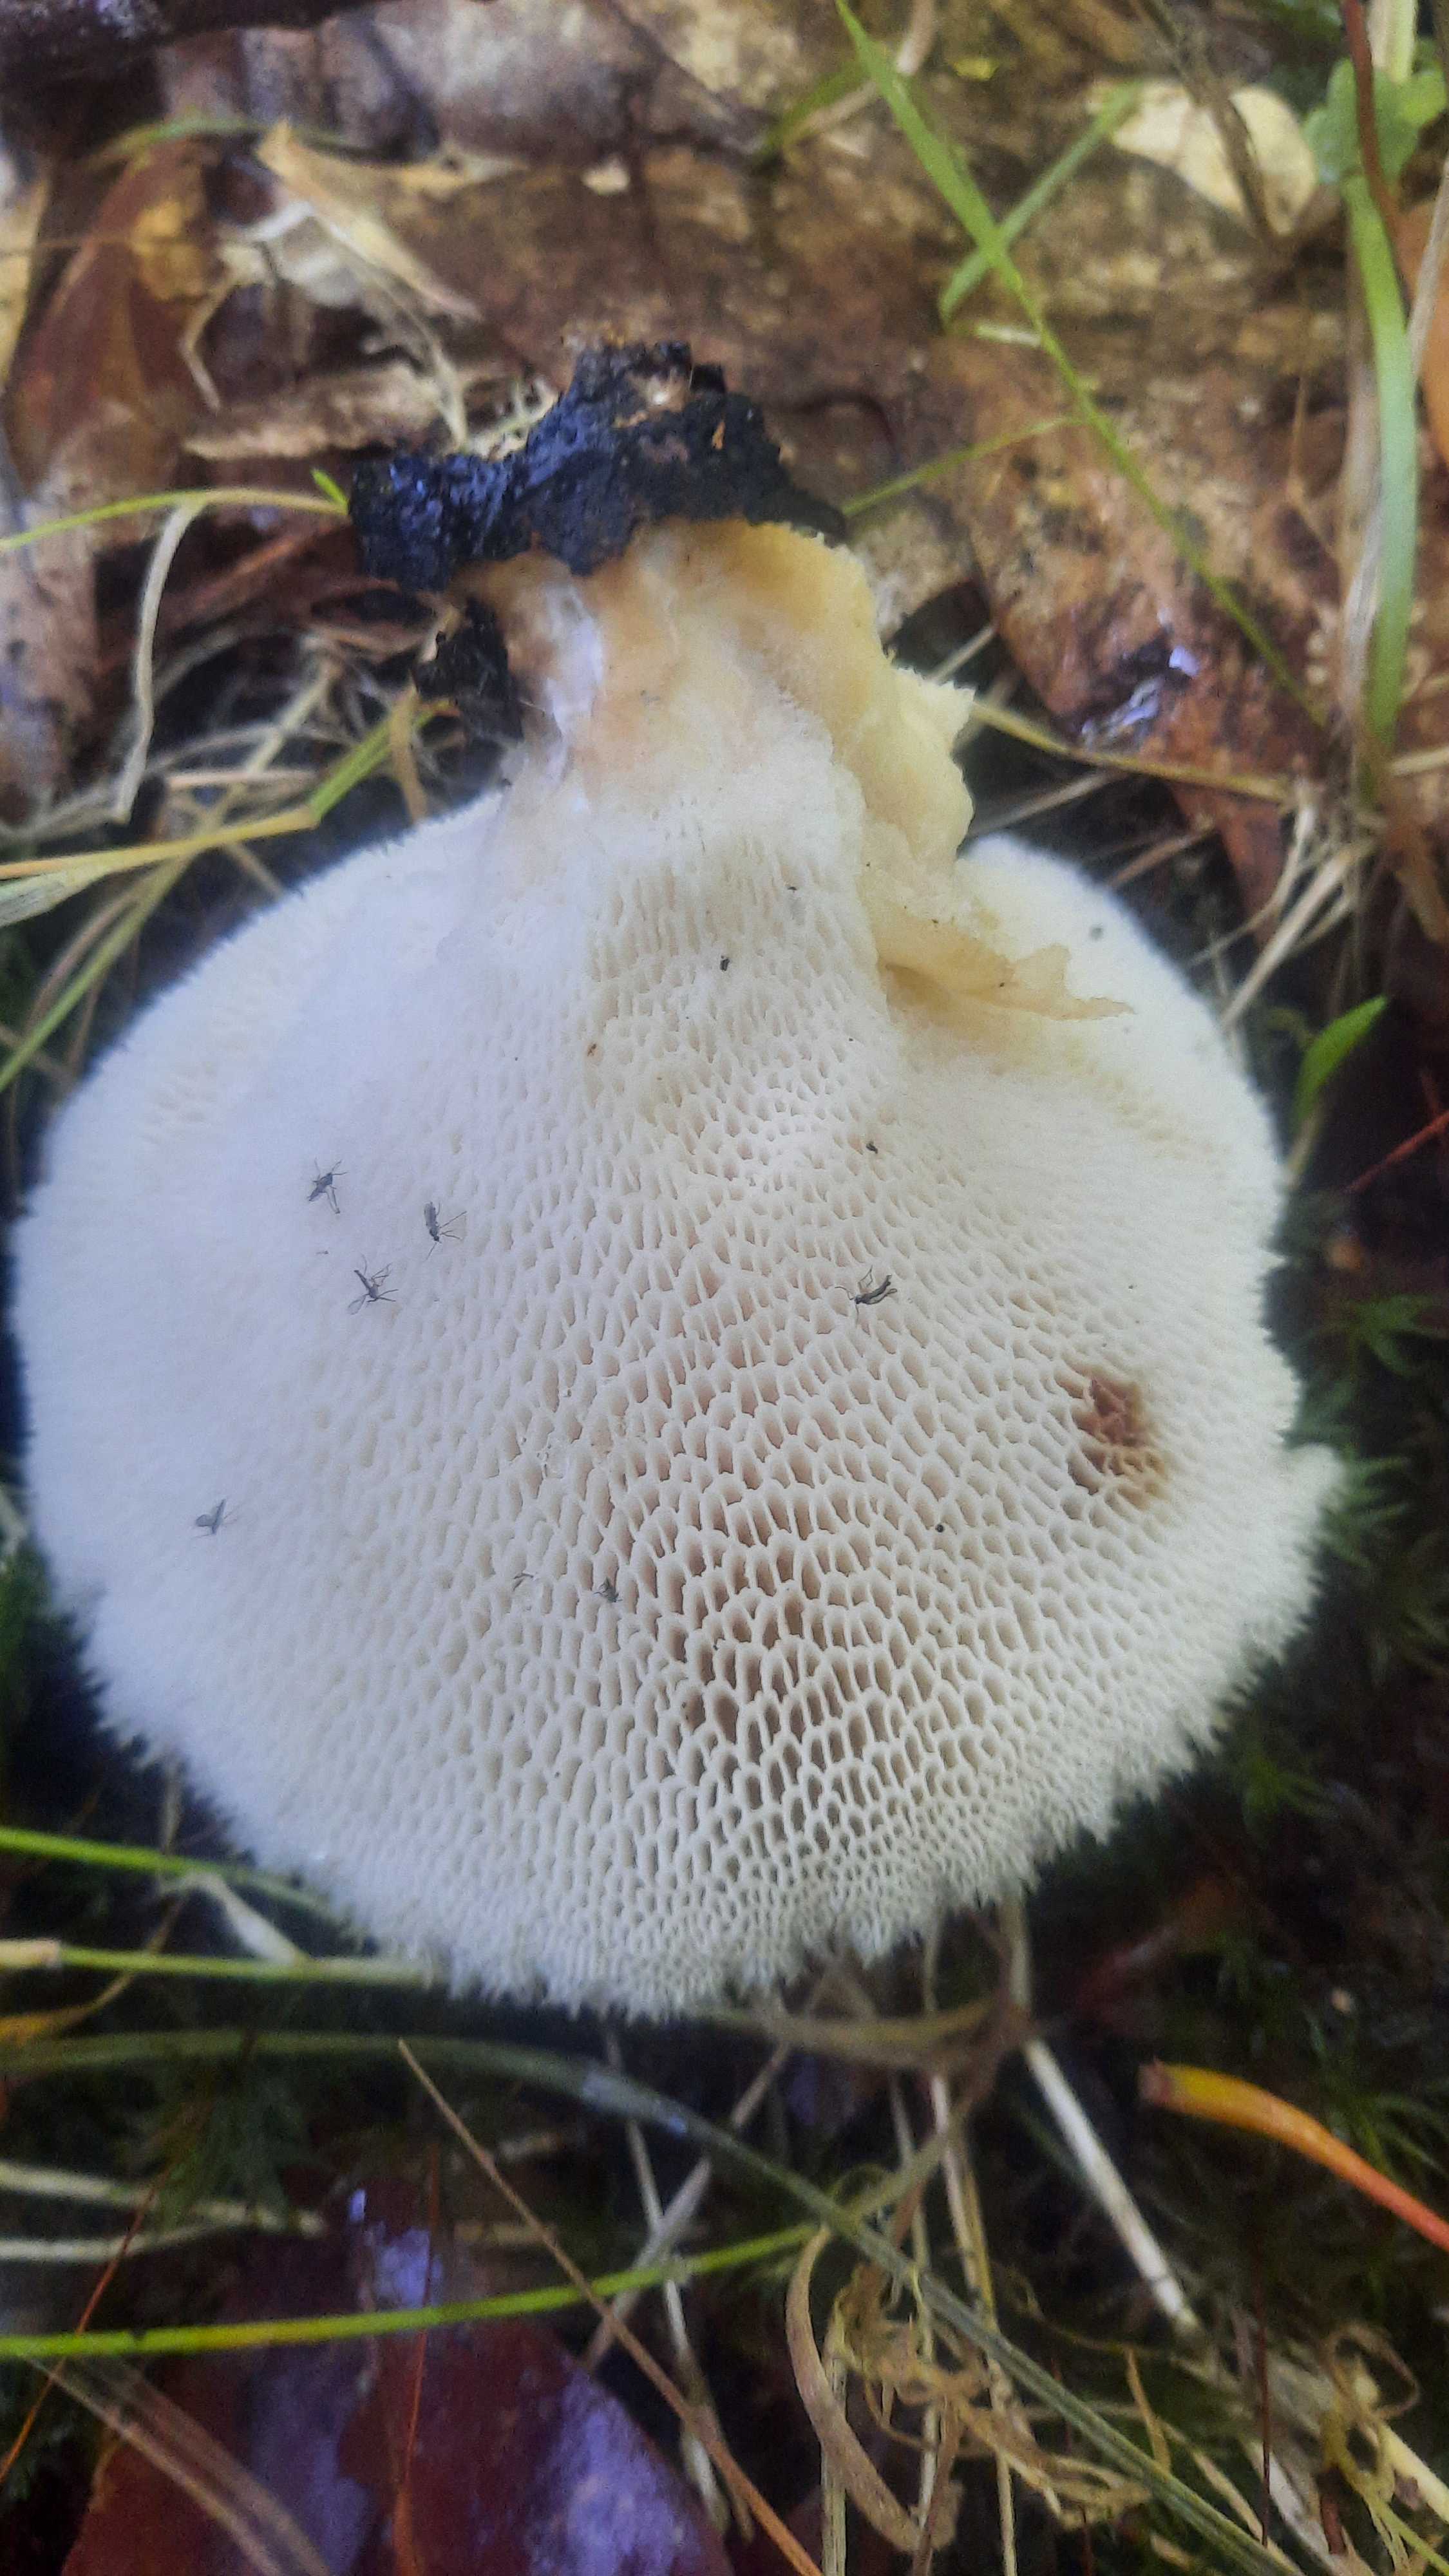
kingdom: Fungi
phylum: Basidiomycota
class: Agaricomycetes
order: Polyporales
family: Polyporaceae
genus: Polyporus
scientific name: Polyporus tuberaster
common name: knoldet stilkporesvamp
